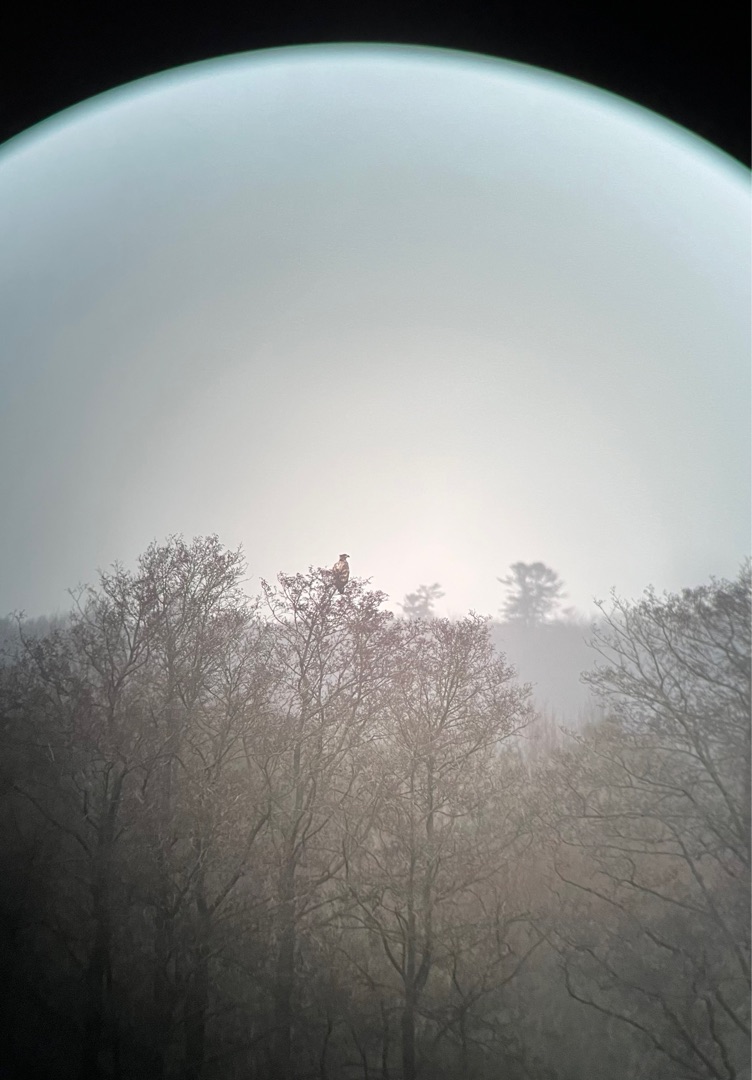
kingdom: Animalia
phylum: Chordata
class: Aves
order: Accipitriformes
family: Accipitridae
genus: Haliaeetus
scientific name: Haliaeetus albicilla
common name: Havørn
